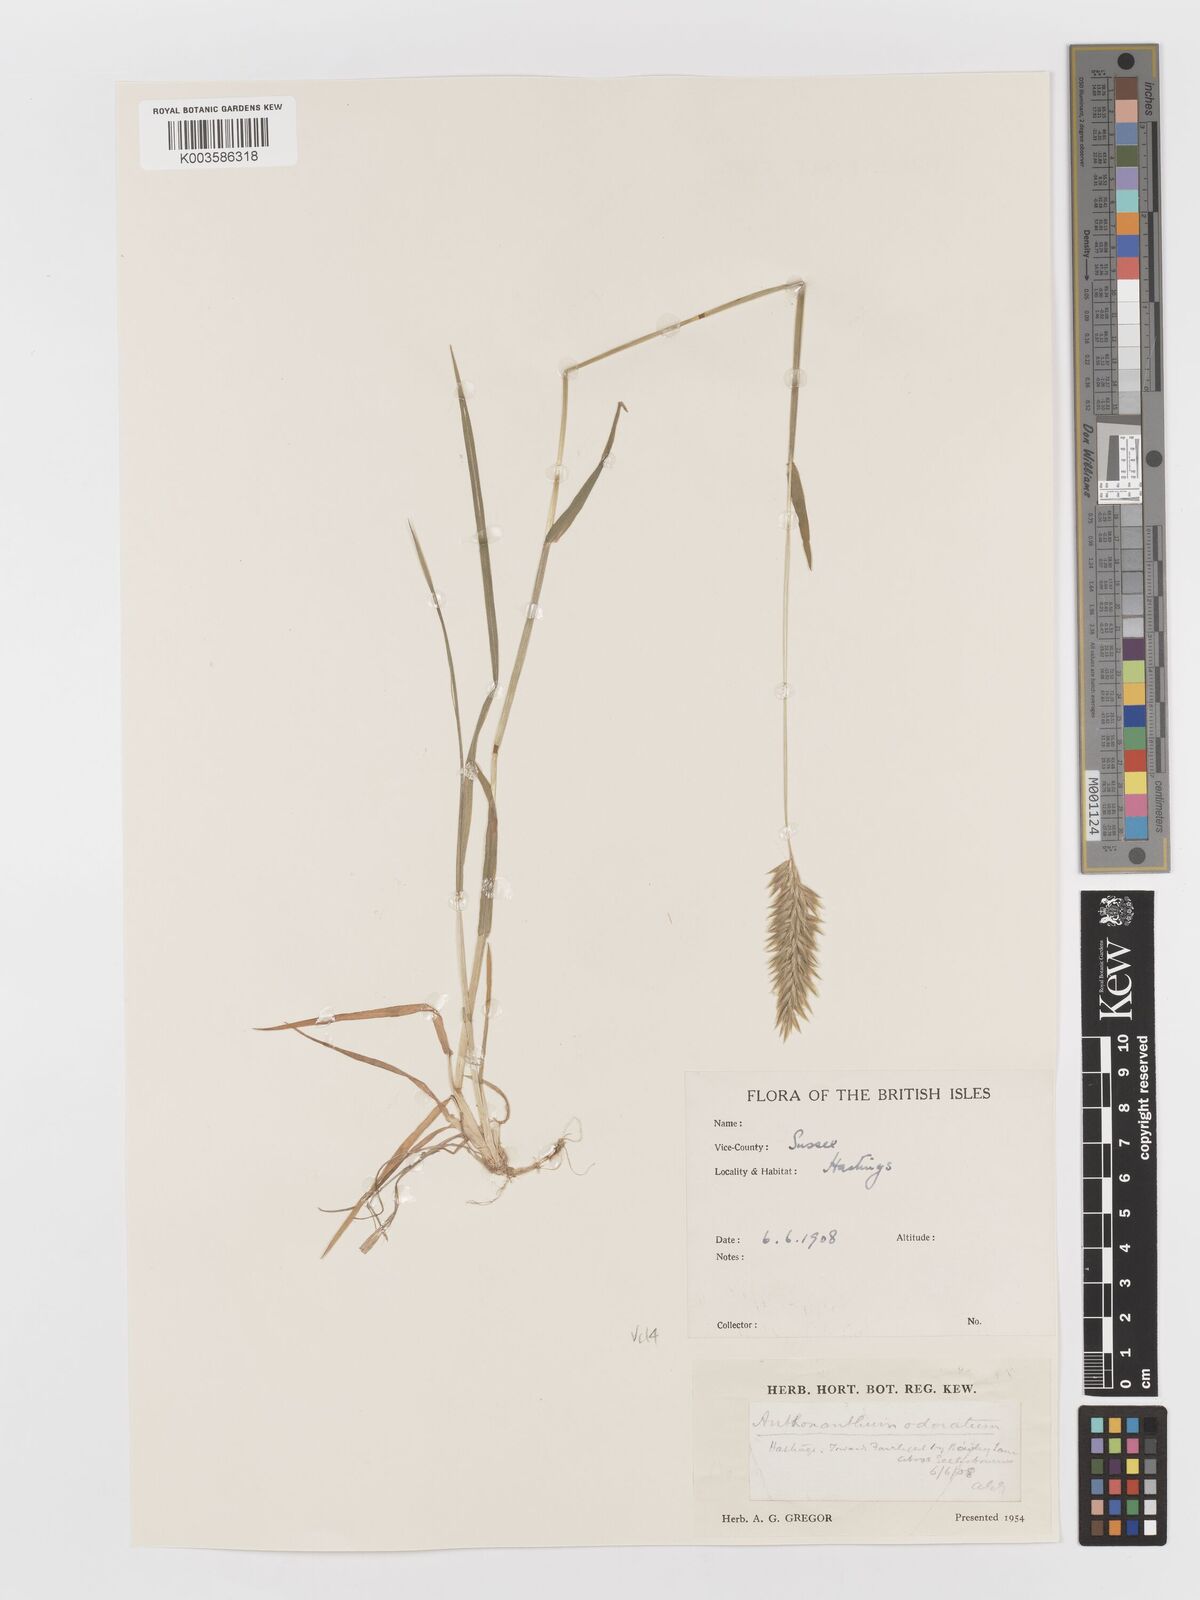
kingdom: Plantae
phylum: Tracheophyta
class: Liliopsida
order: Poales
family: Poaceae
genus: Anthoxanthum
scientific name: Anthoxanthum odoratum
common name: Sweet vernalgrass
